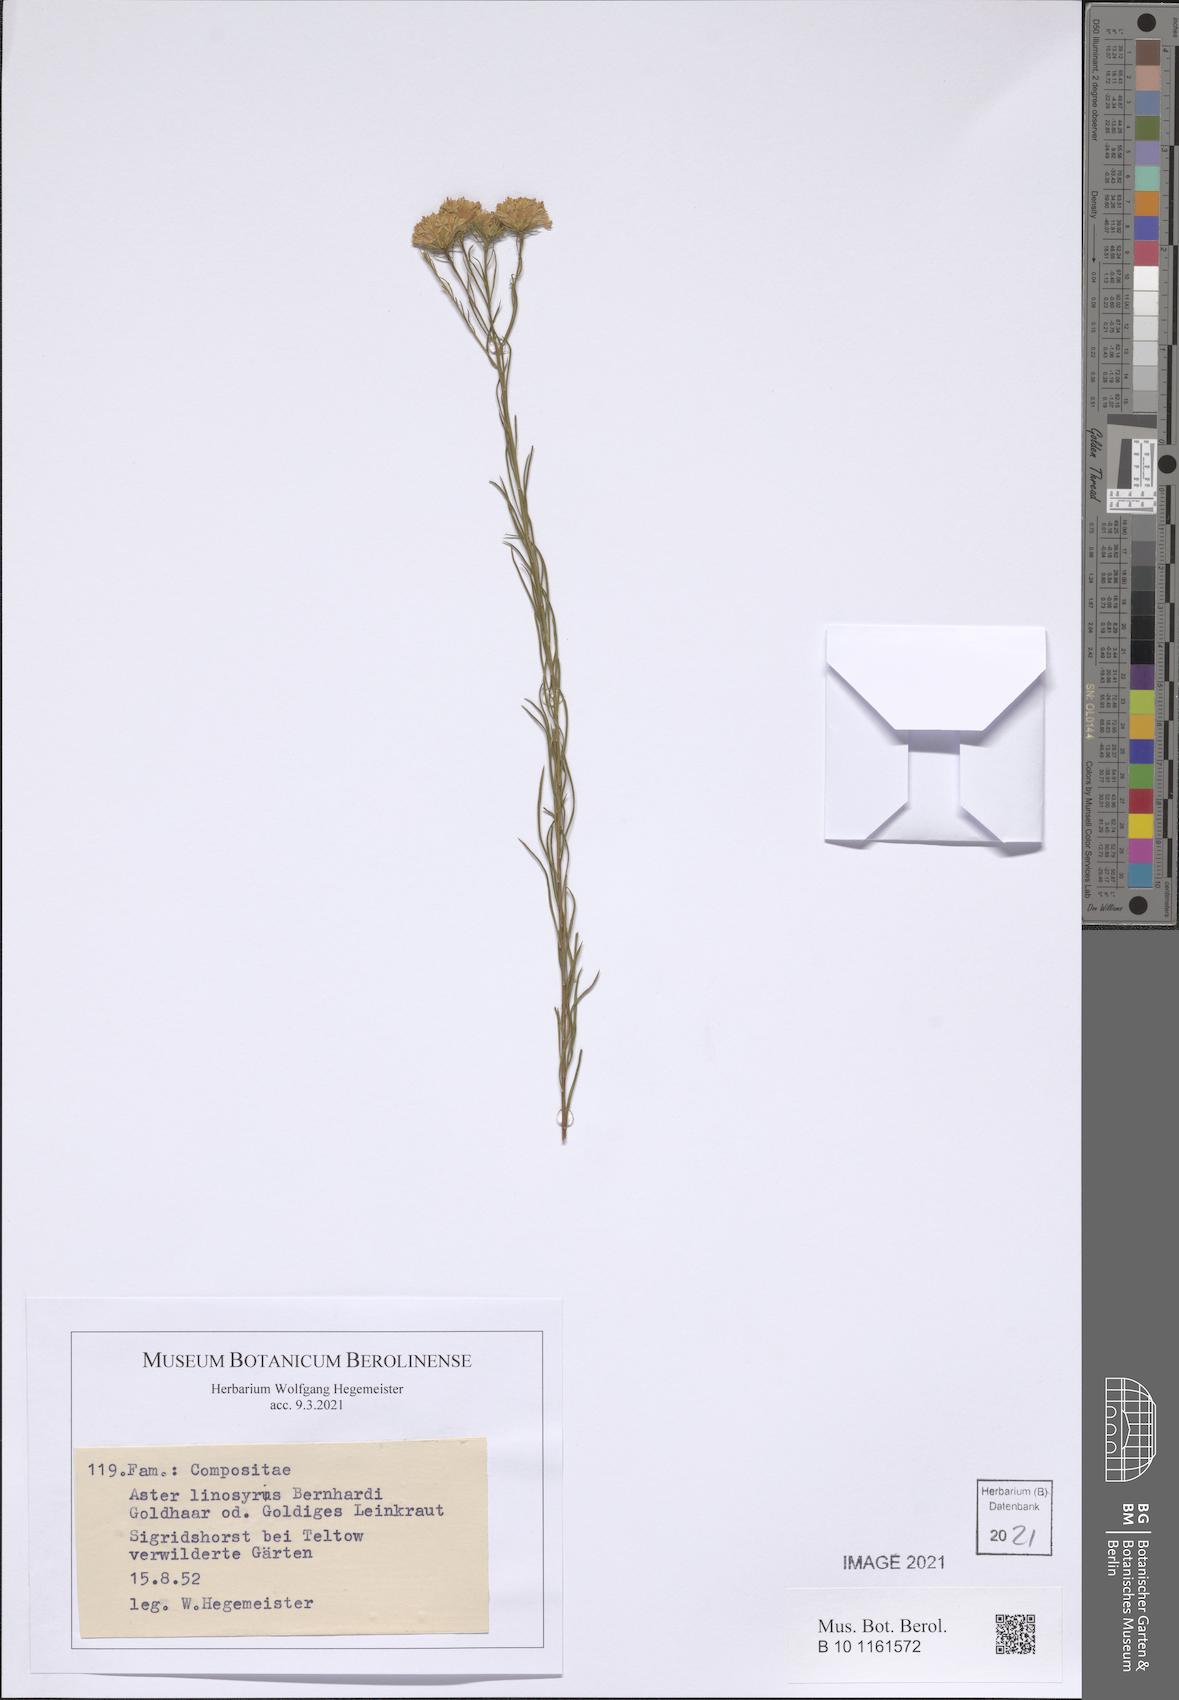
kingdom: Plantae
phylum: Tracheophyta
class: Magnoliopsida
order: Asterales
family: Asteraceae
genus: Galatella
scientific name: Galatella linosyris
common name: Goldilocks aster
